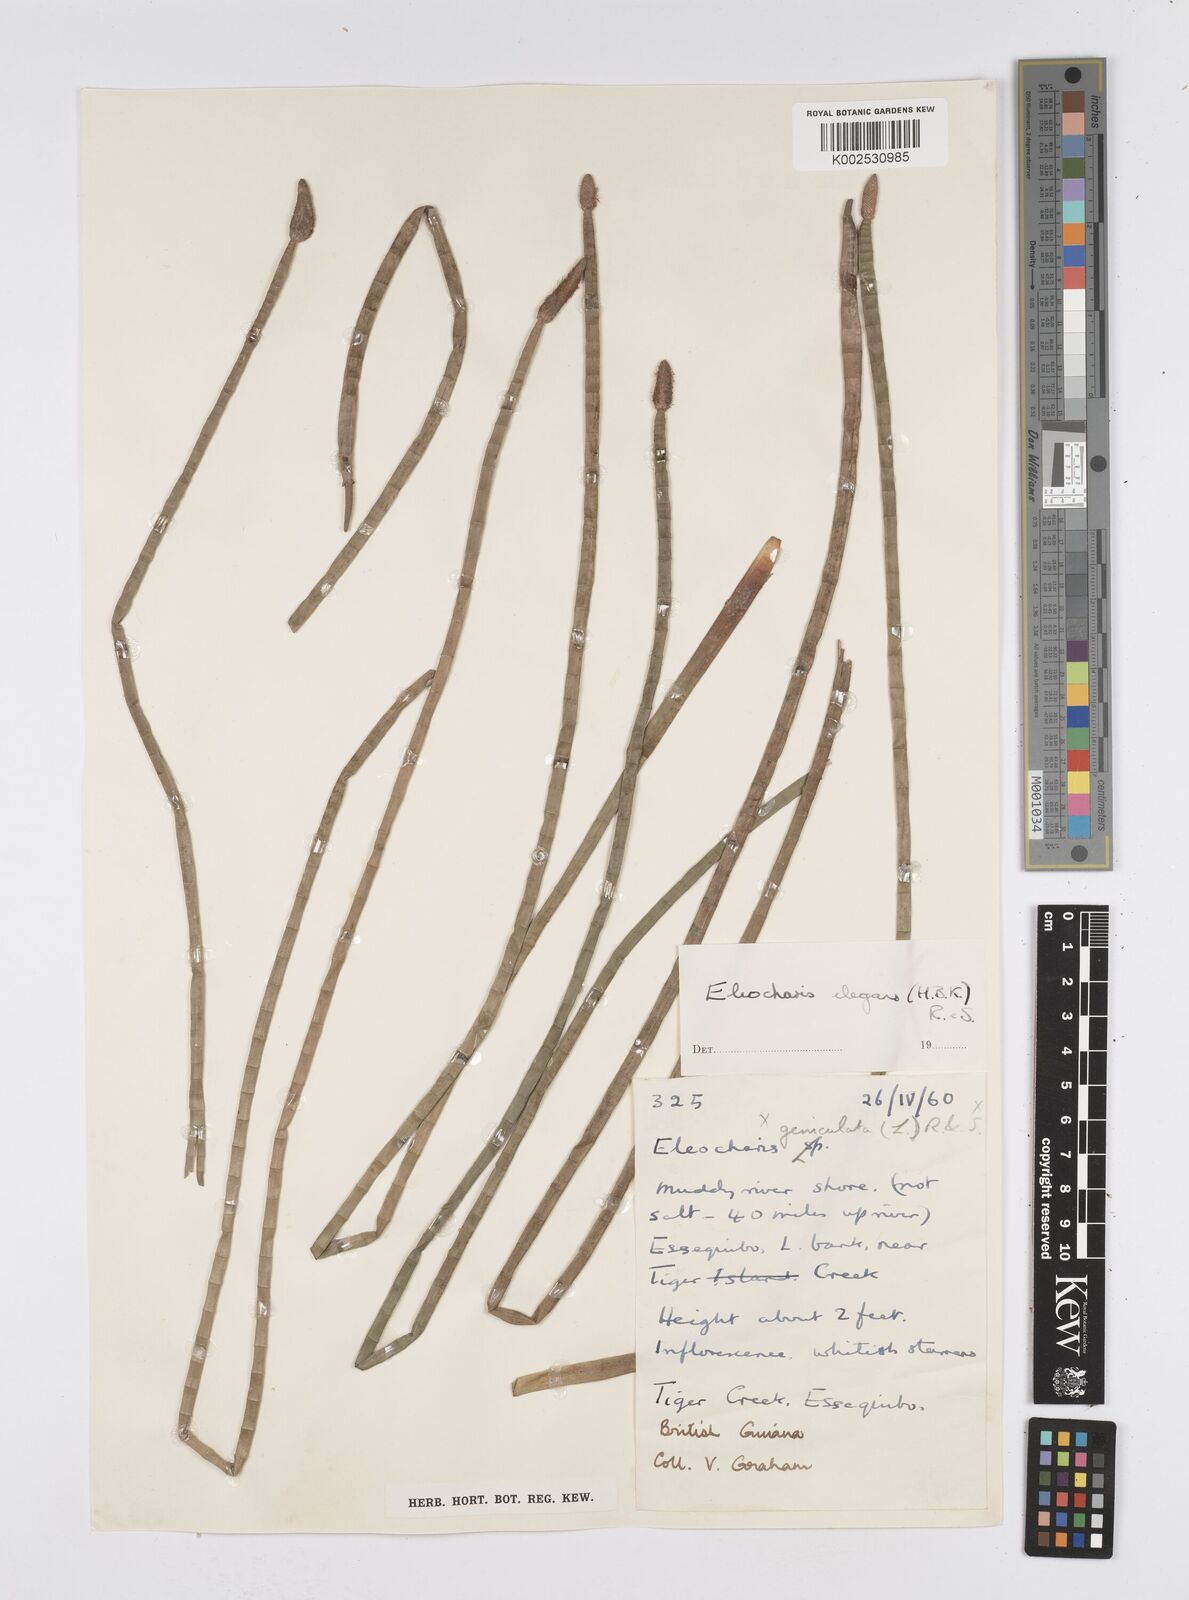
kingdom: Plantae
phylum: Tracheophyta
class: Liliopsida
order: Poales
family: Cyperaceae
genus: Eleocharis
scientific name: Eleocharis elegans
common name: Elegant spike-rush
